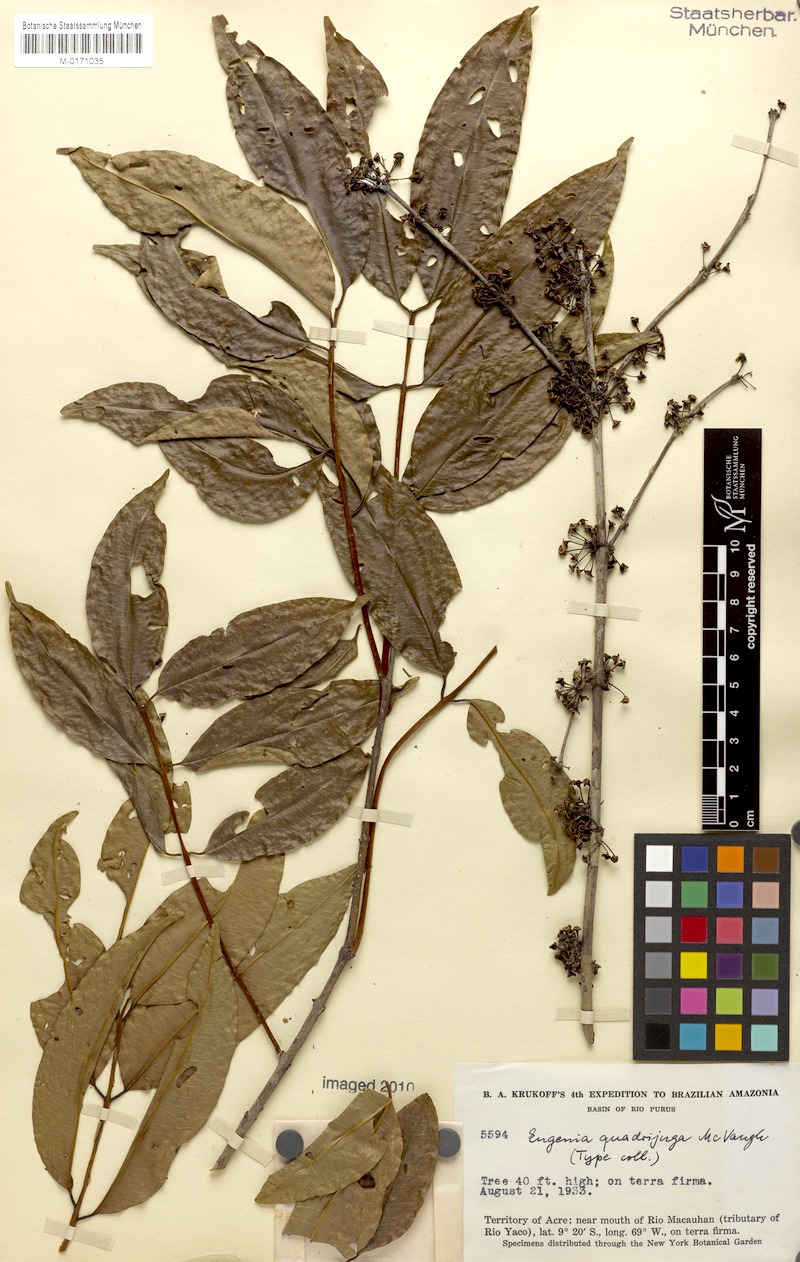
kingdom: Plantae
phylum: Tracheophyta
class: Magnoliopsida
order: Myrtales
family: Myrtaceae
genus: Eugenia
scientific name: Eugenia quadrijuga
